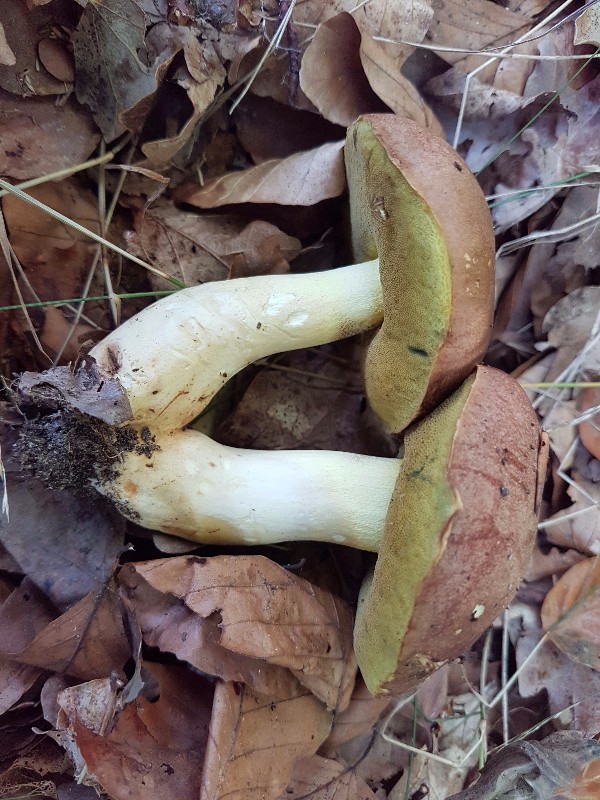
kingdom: Fungi
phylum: Basidiomycota
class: Agaricomycetes
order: Boletales
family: Boletaceae
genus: Butyriboletus
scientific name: Butyriboletus appendiculatus
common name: tenstokket rørhat
